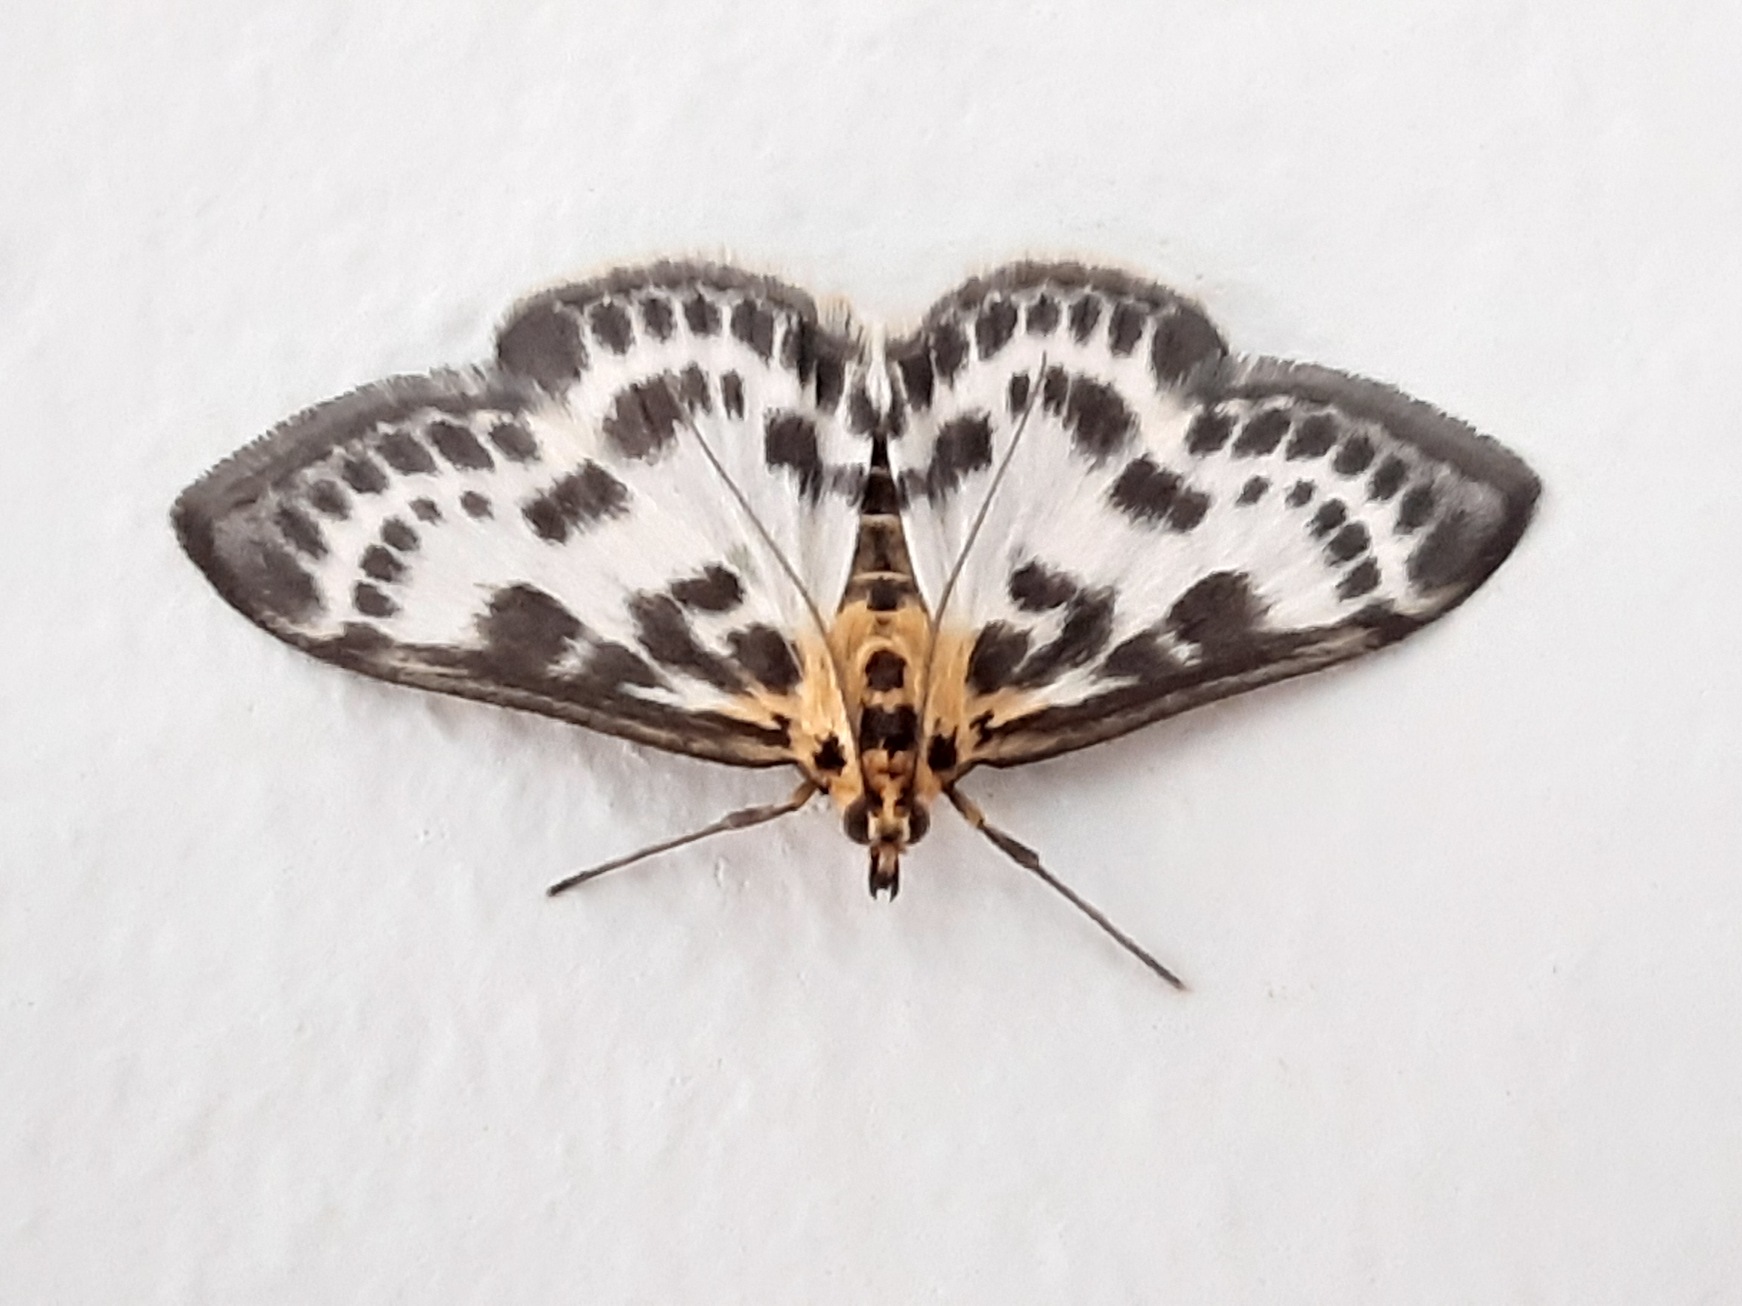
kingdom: Animalia
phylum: Arthropoda
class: Insecta
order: Lepidoptera
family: Crambidae
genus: Anania
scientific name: Anania hortulata
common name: Nældehalvmøl
